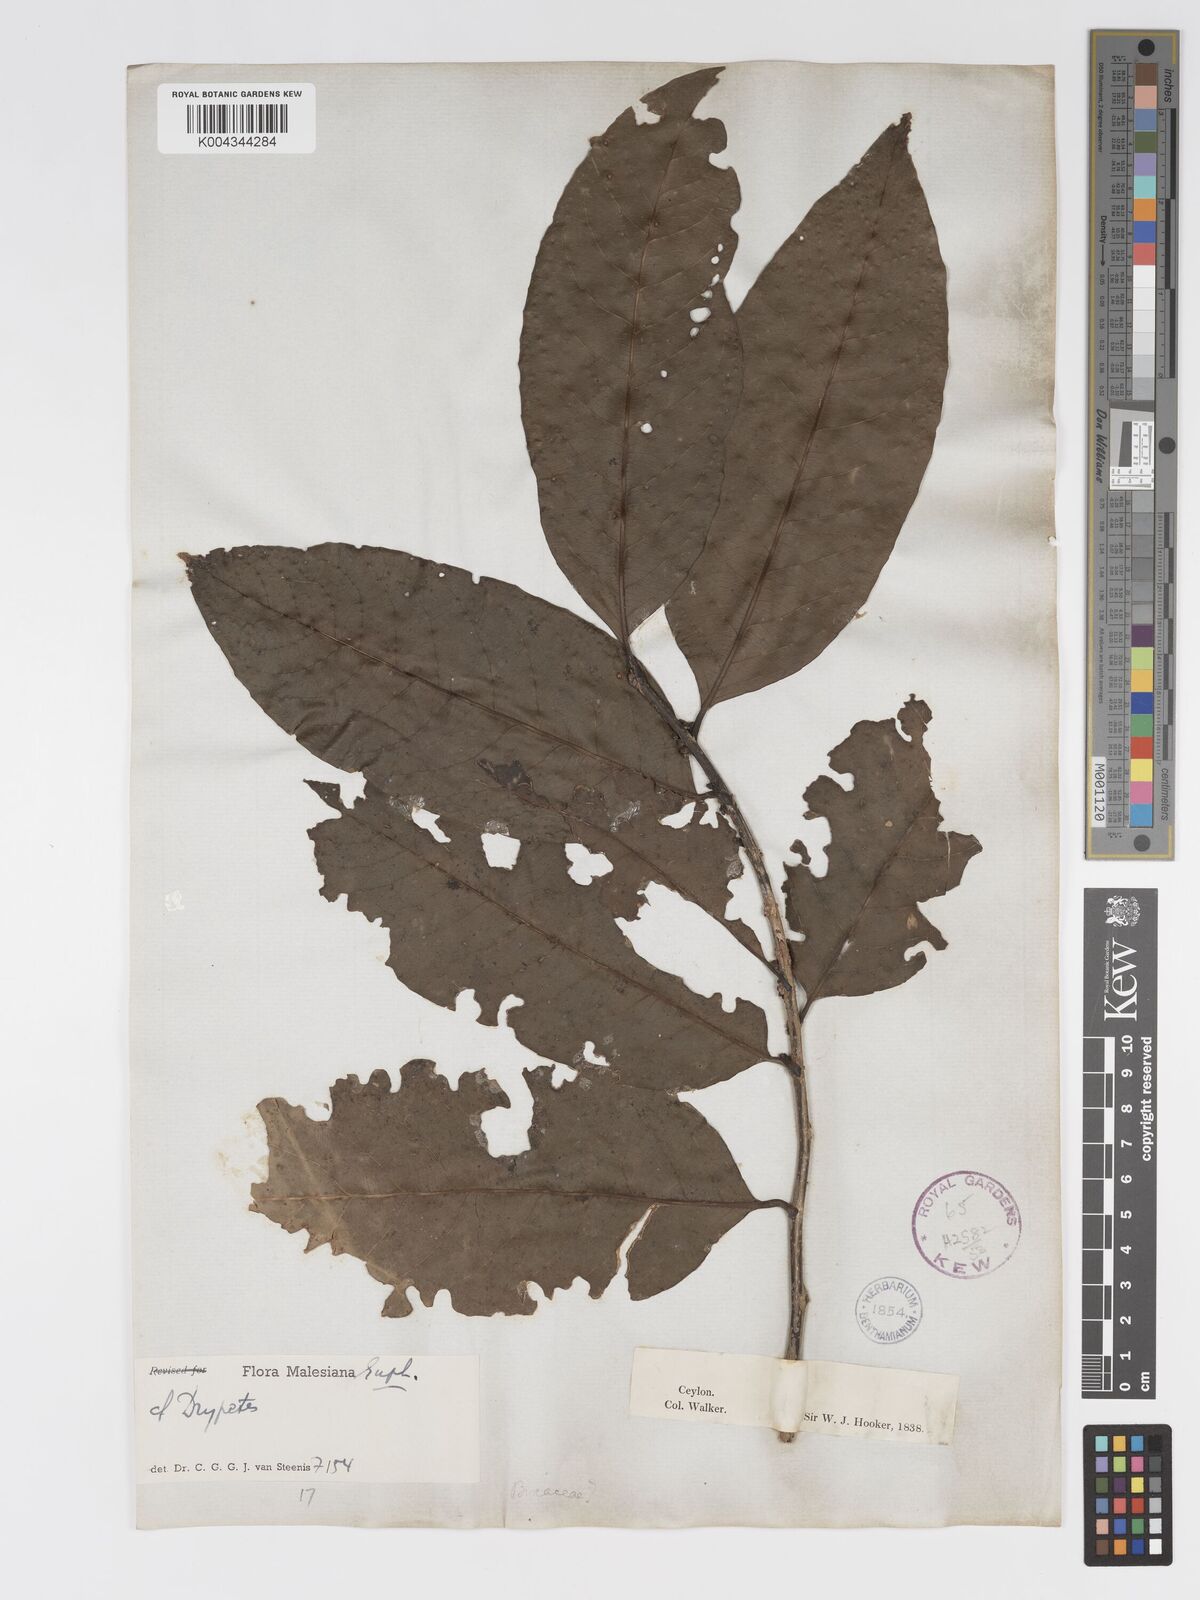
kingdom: Plantae
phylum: Tracheophyta
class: Magnoliopsida
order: Malpighiales
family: Putranjivaceae
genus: Drypetes
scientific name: Drypetes
